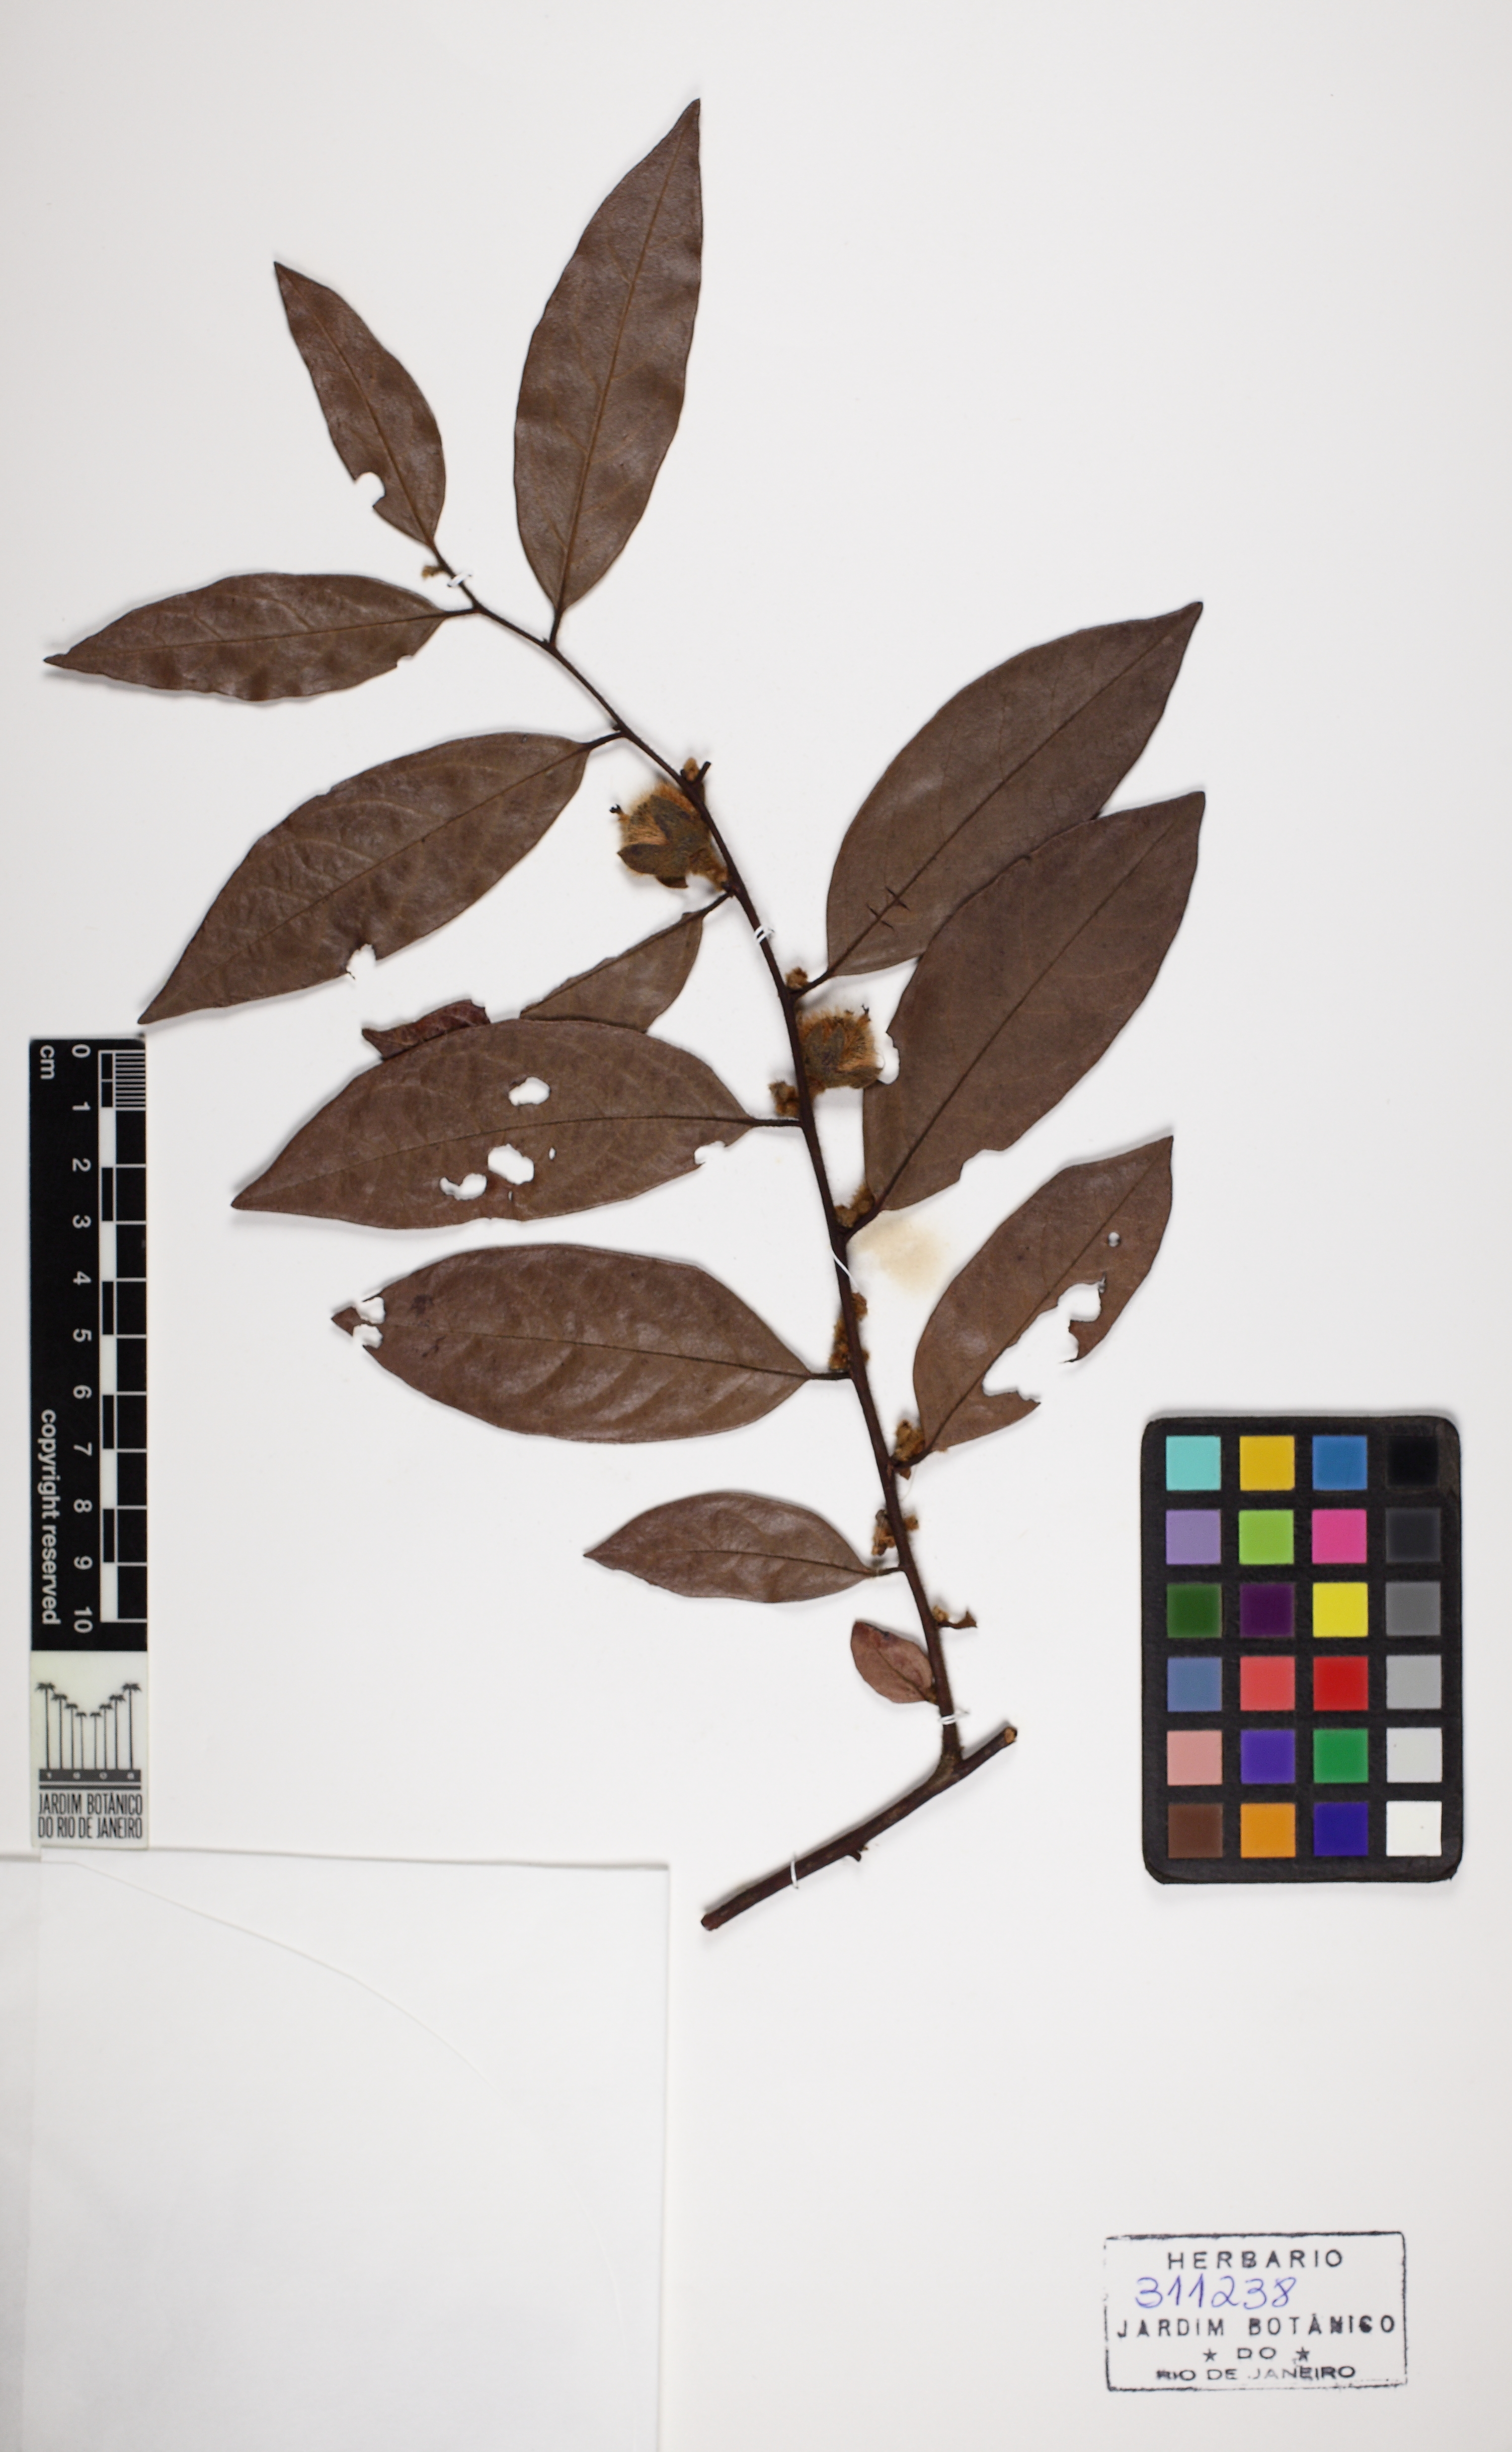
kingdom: Plantae
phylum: Tracheophyta
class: Magnoliopsida
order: Ericales
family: Ebenaceae
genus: Diospyros
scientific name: Diospyros capreifolia
